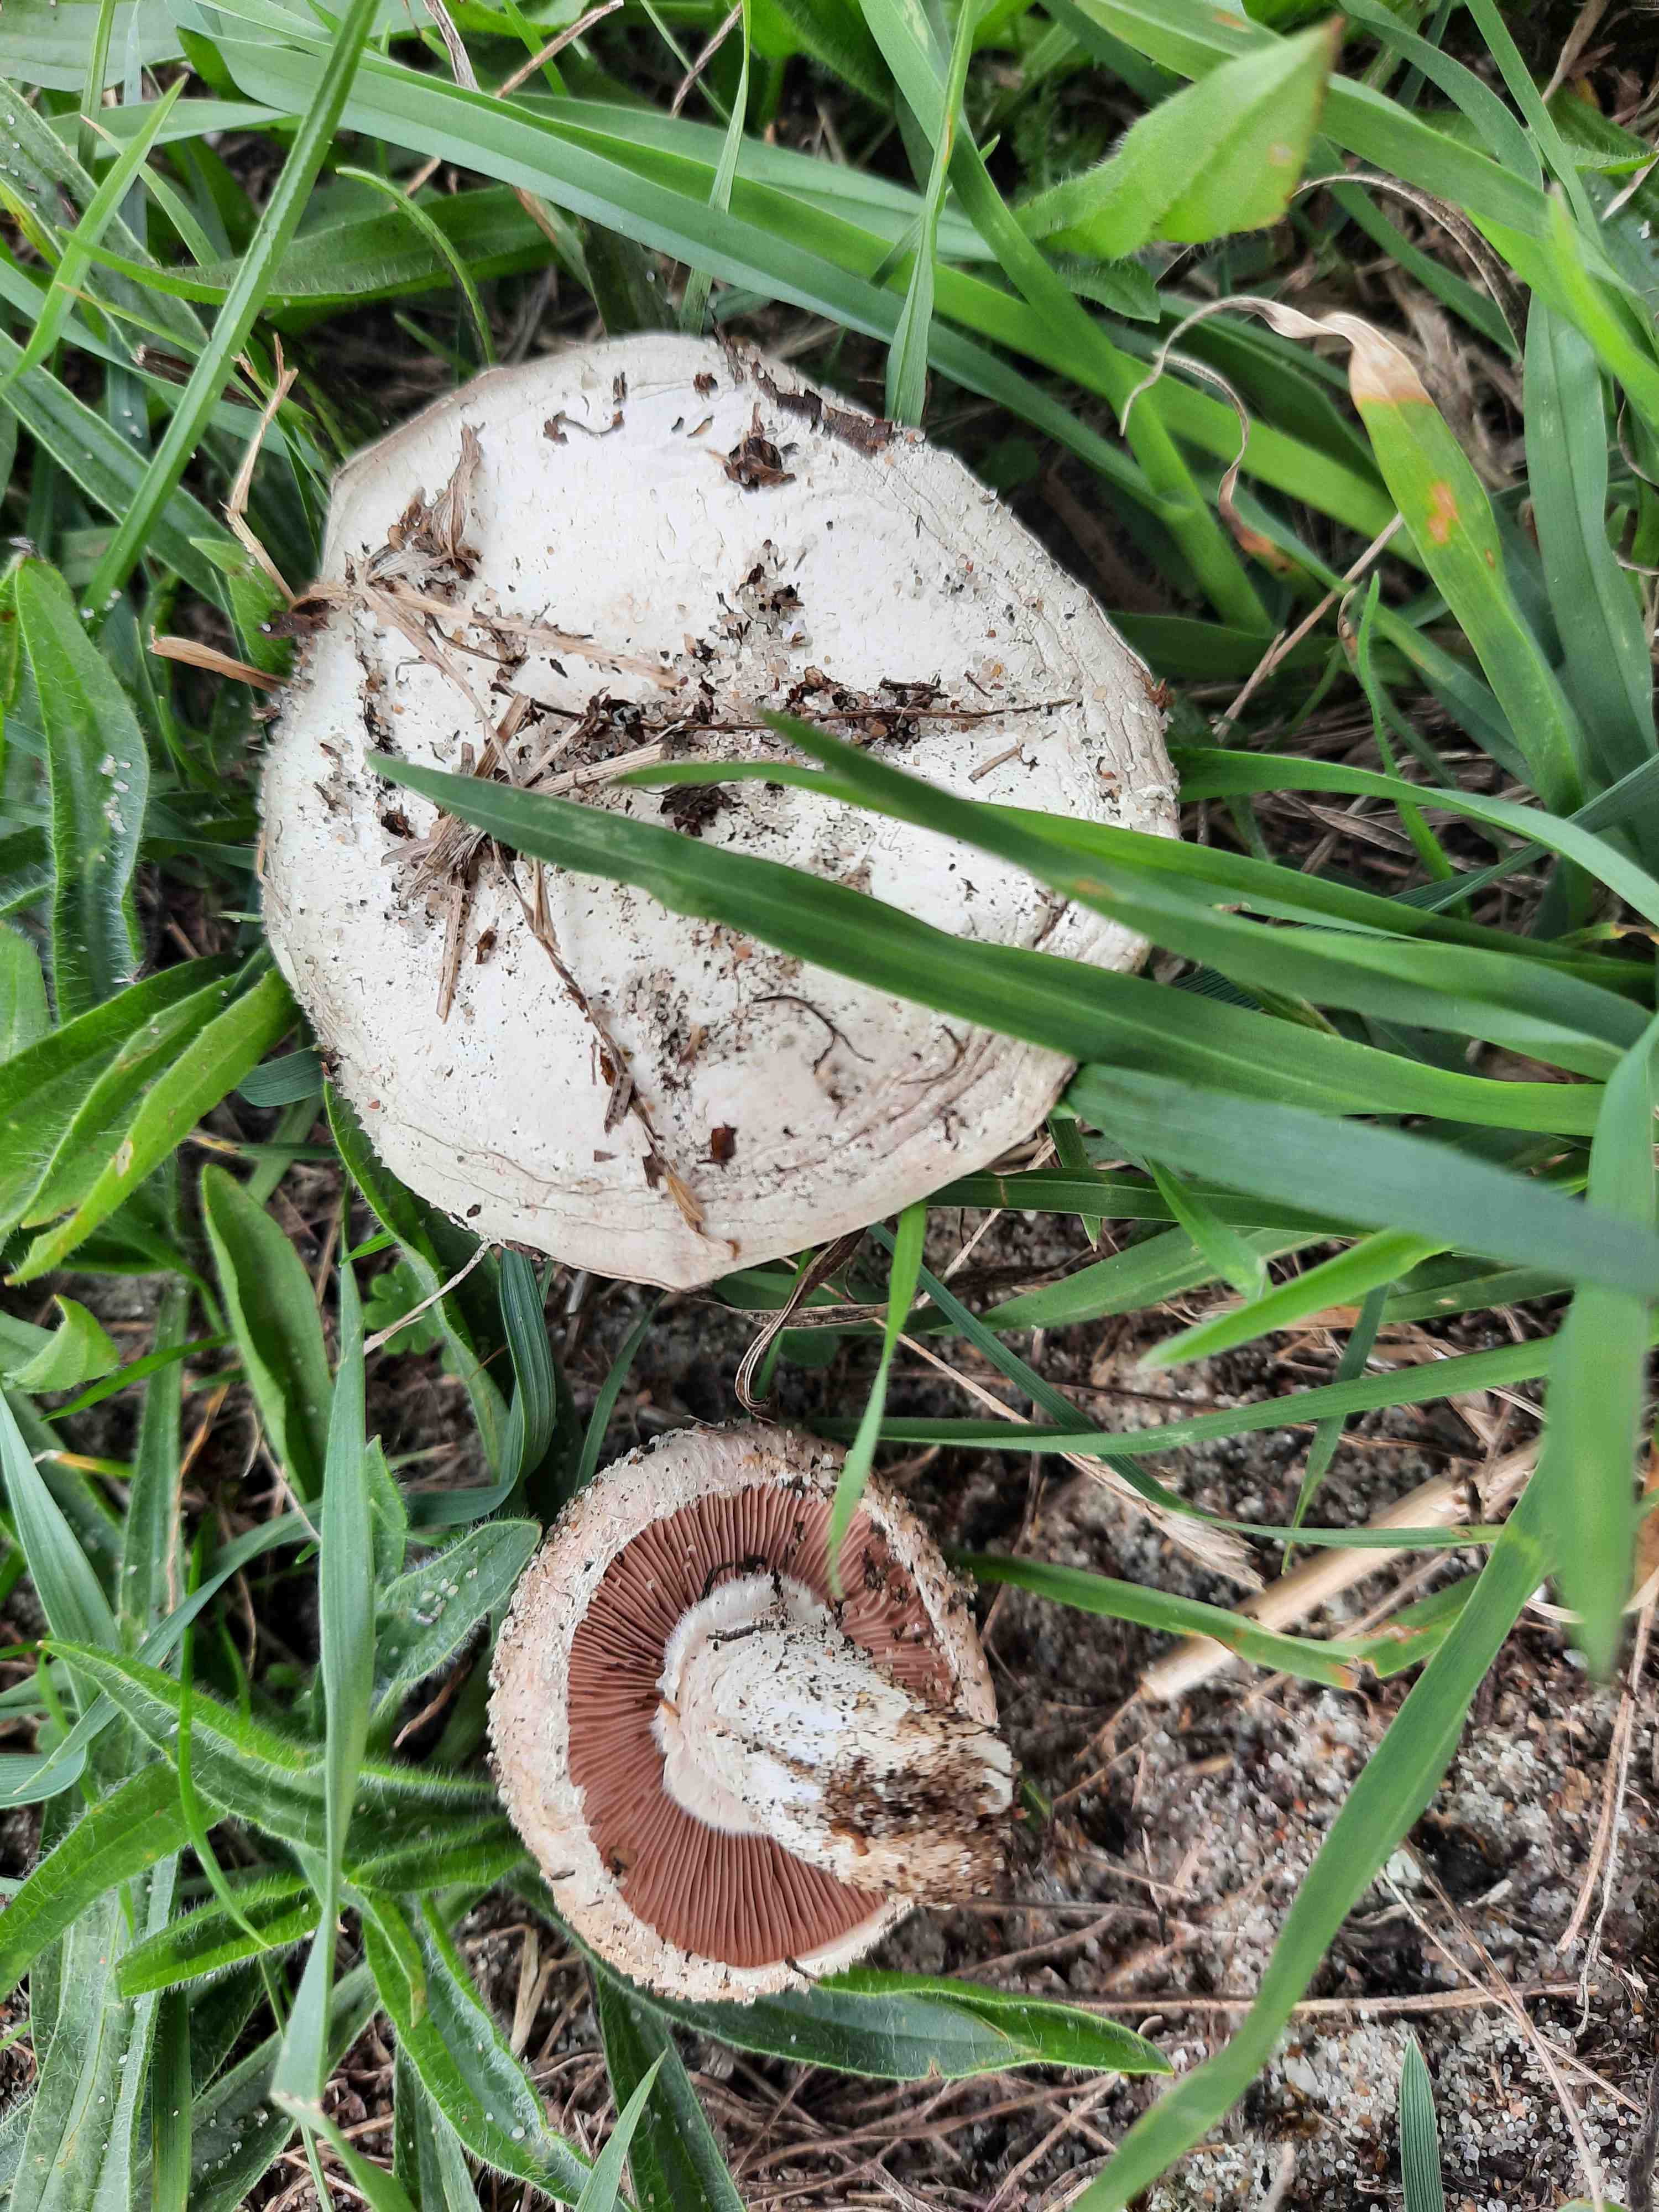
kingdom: Fungi
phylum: Basidiomycota
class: Agaricomycetes
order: Agaricales
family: Agaricaceae
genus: Agaricus
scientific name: Agaricus campestris
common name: mark-champignon
